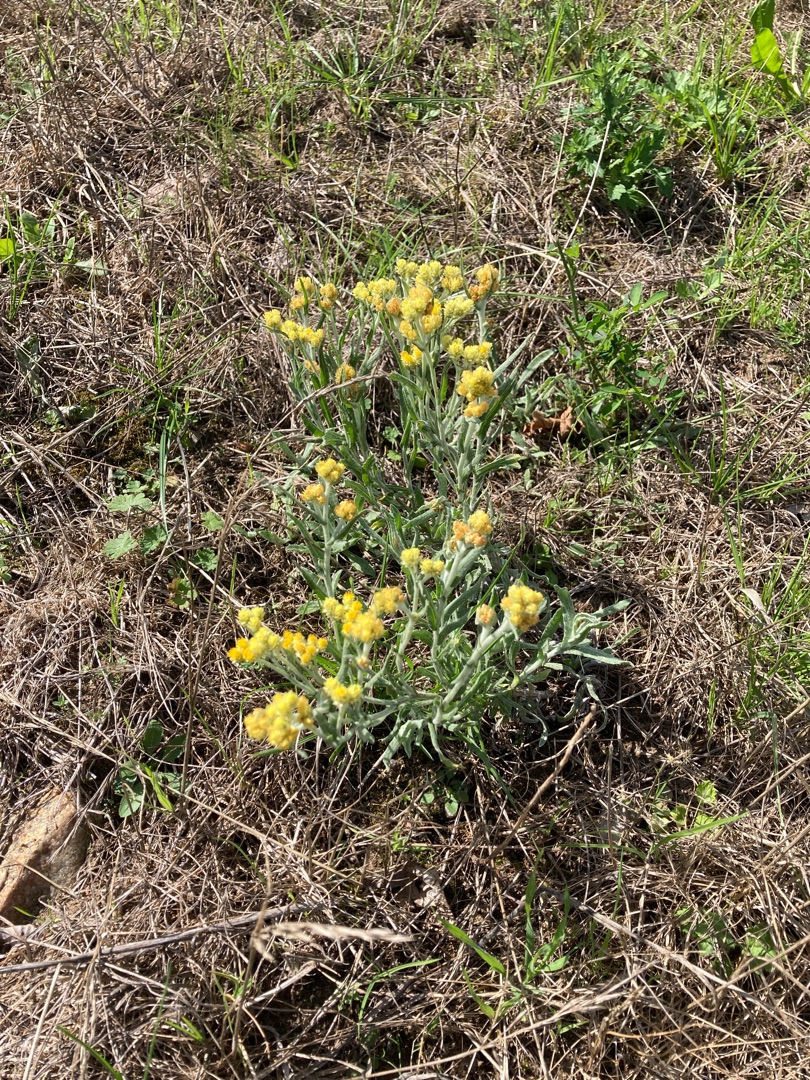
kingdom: Plantae
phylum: Tracheophyta
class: Magnoliopsida
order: Asterales
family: Asteraceae
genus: Helichrysum
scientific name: Helichrysum arenarium
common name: Gul evighedsblomst
